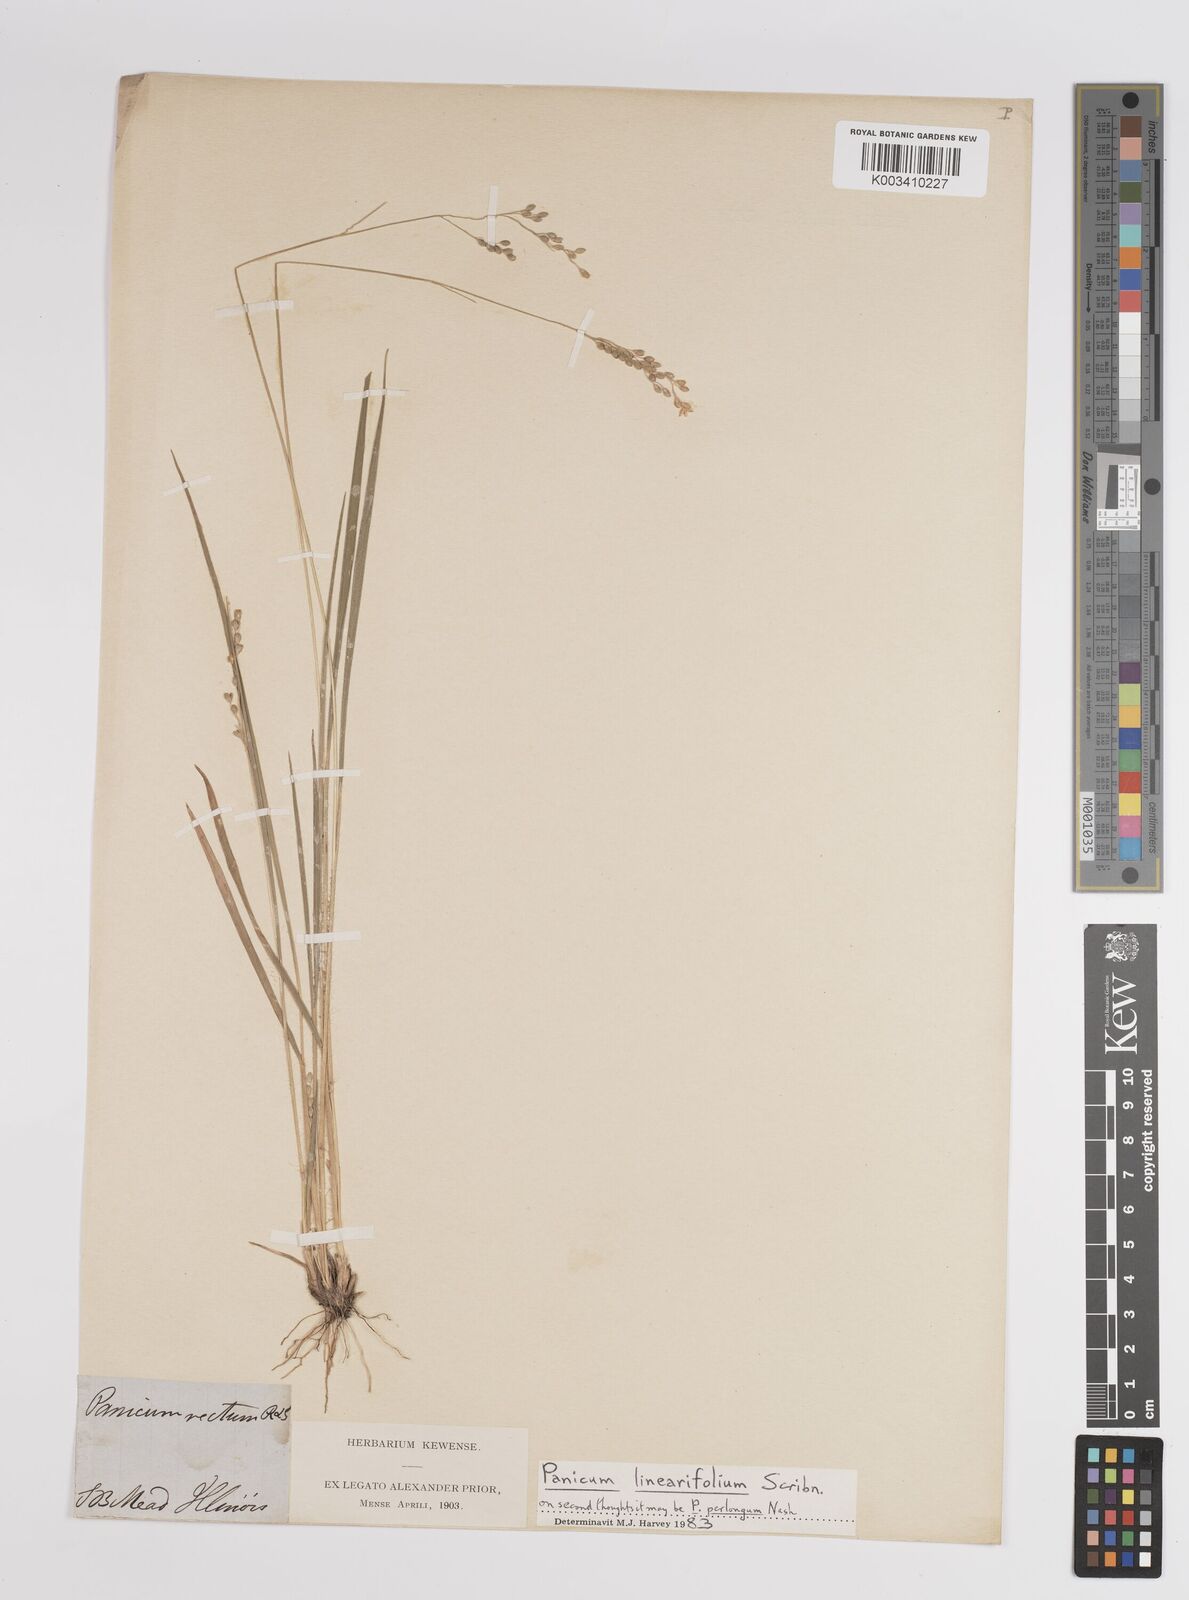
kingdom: Plantae
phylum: Tracheophyta
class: Liliopsida
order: Poales
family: Poaceae
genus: Dichanthelium
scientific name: Dichanthelium linearifolium
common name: Linear-leaved panicgrass
